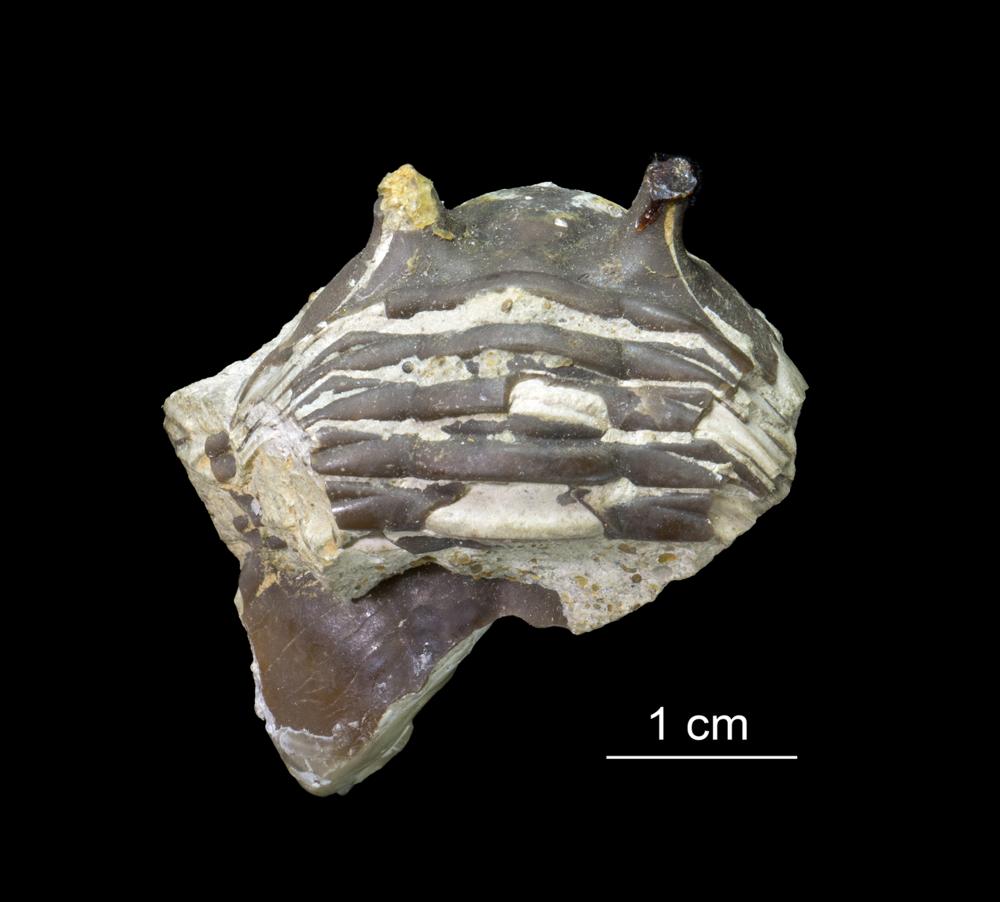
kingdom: Animalia
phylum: Arthropoda
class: Trilobita
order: Asaphida
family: Asaphidae
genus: Asaphus
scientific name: Asaphus ornatus
